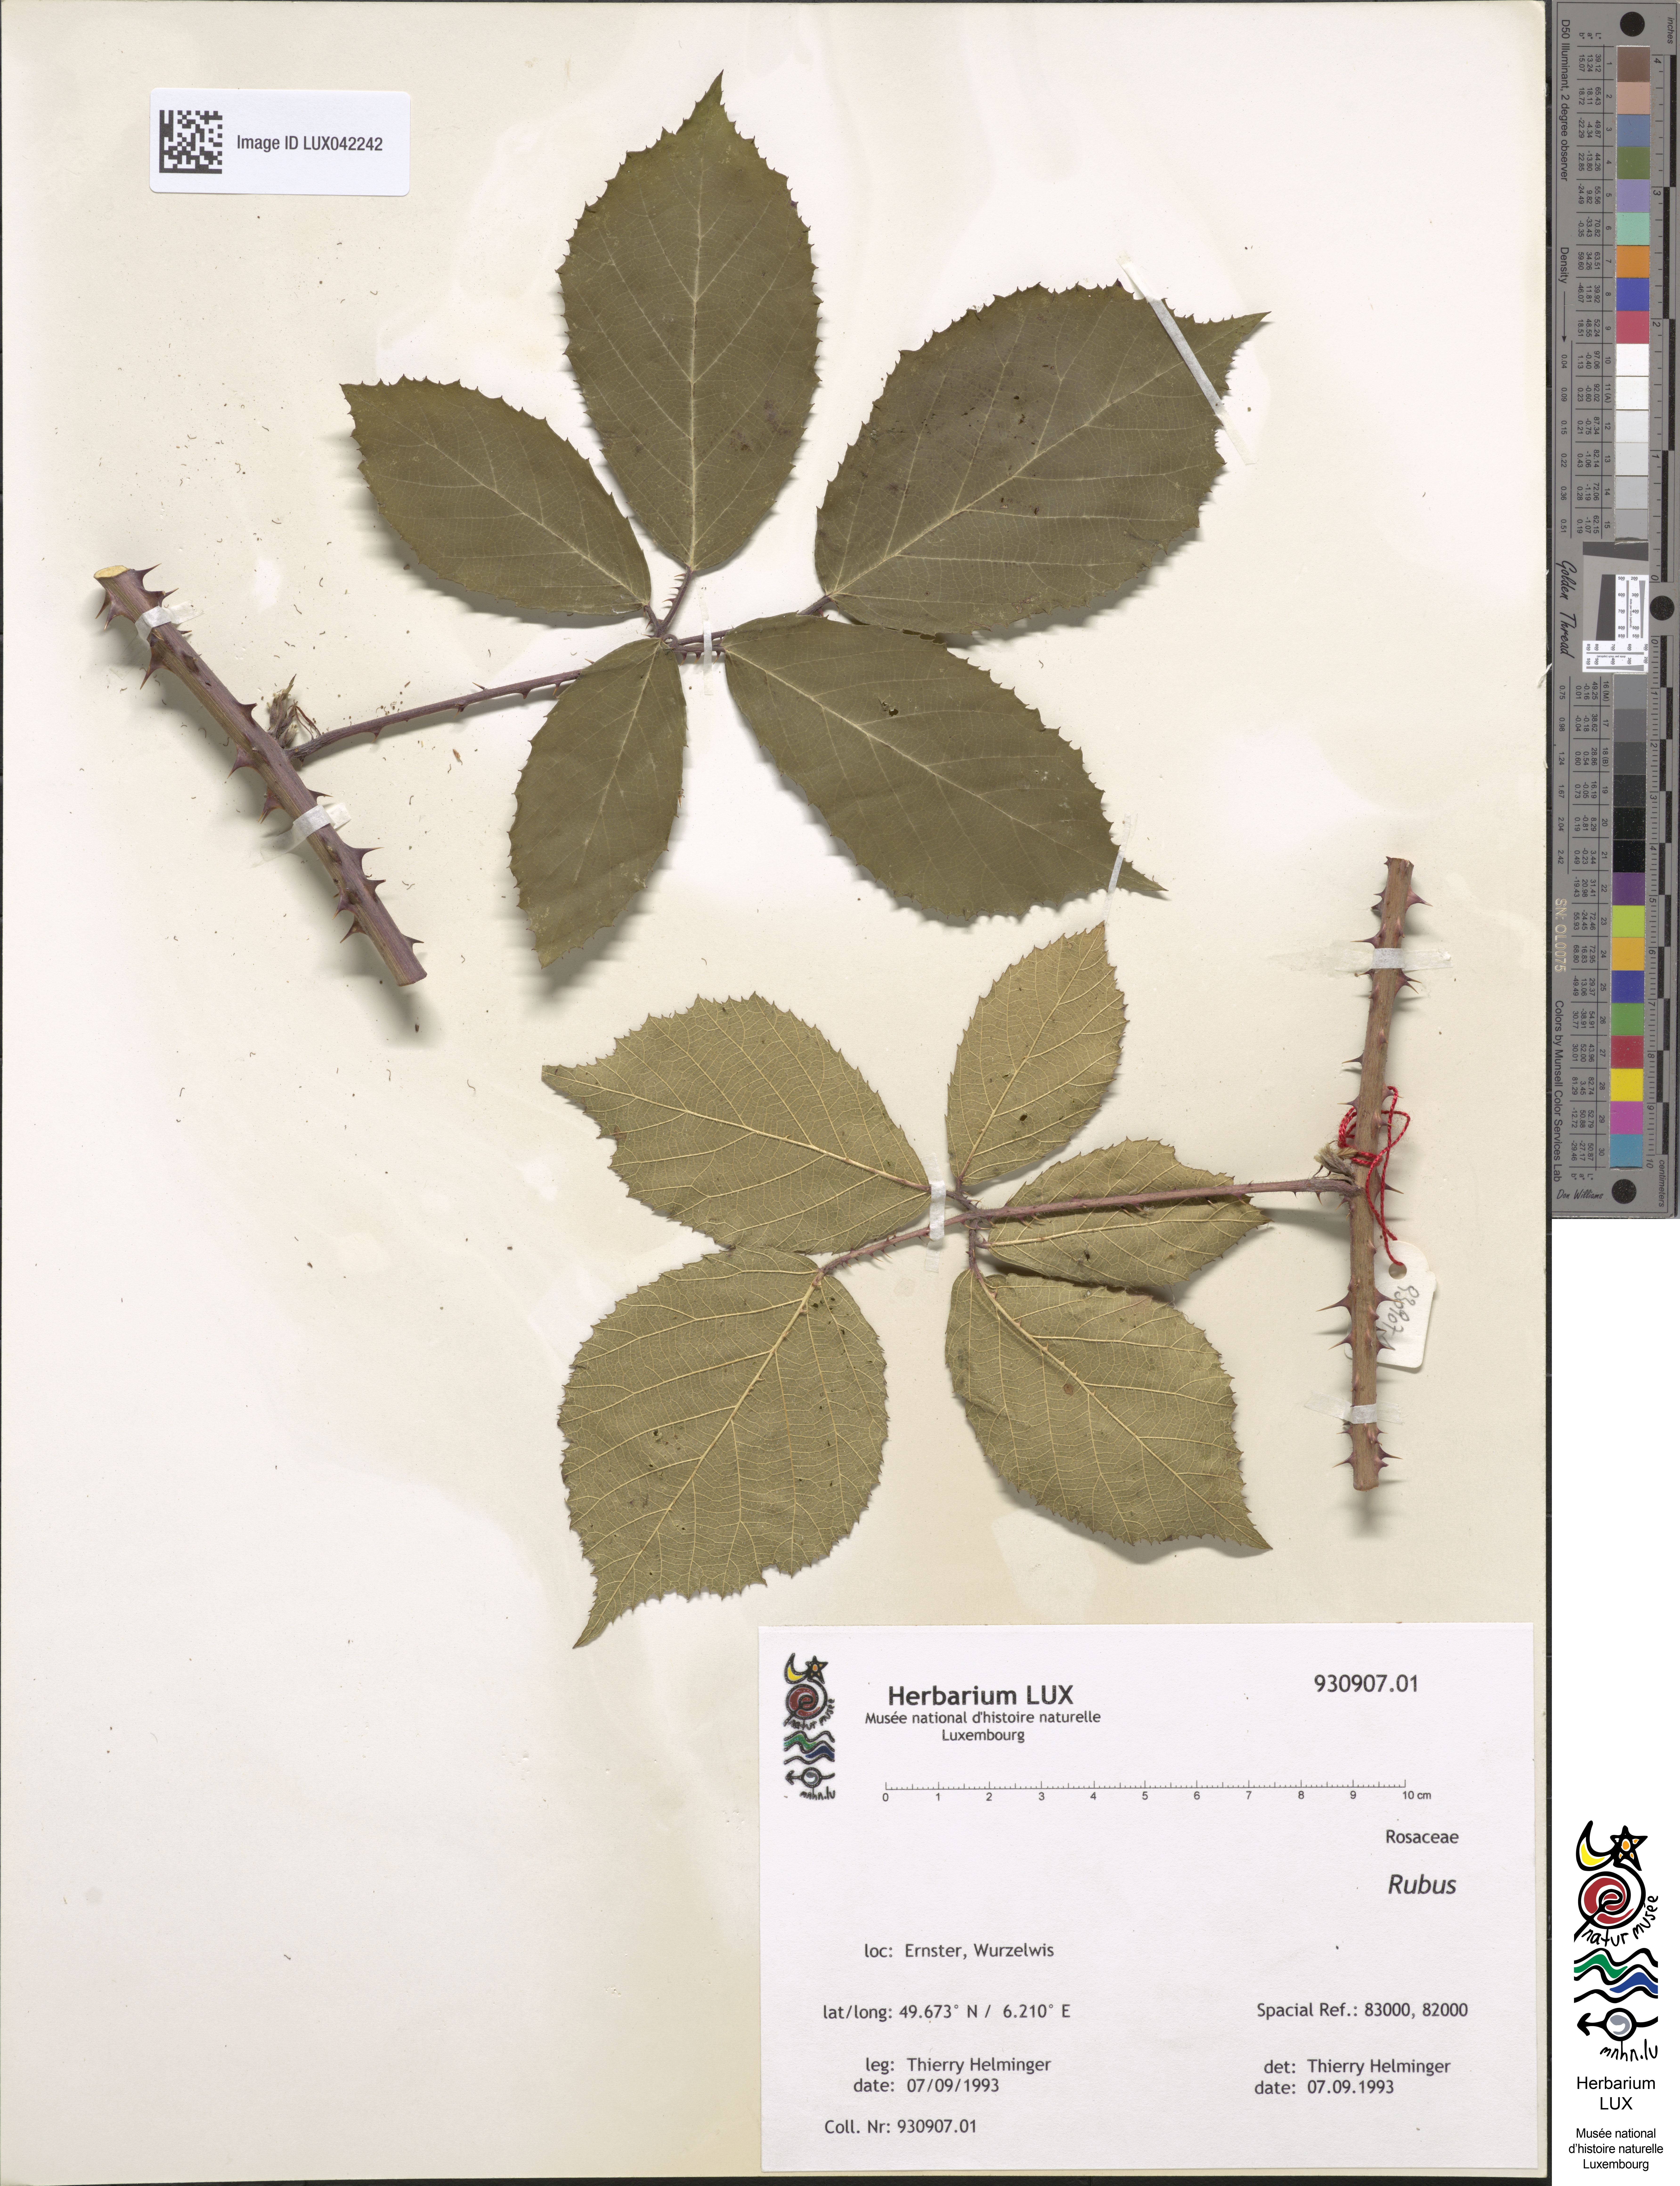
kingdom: Plantae
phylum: Tracheophyta
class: Magnoliopsida
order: Rosales
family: Rosaceae
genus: Rubus
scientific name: Rubus
